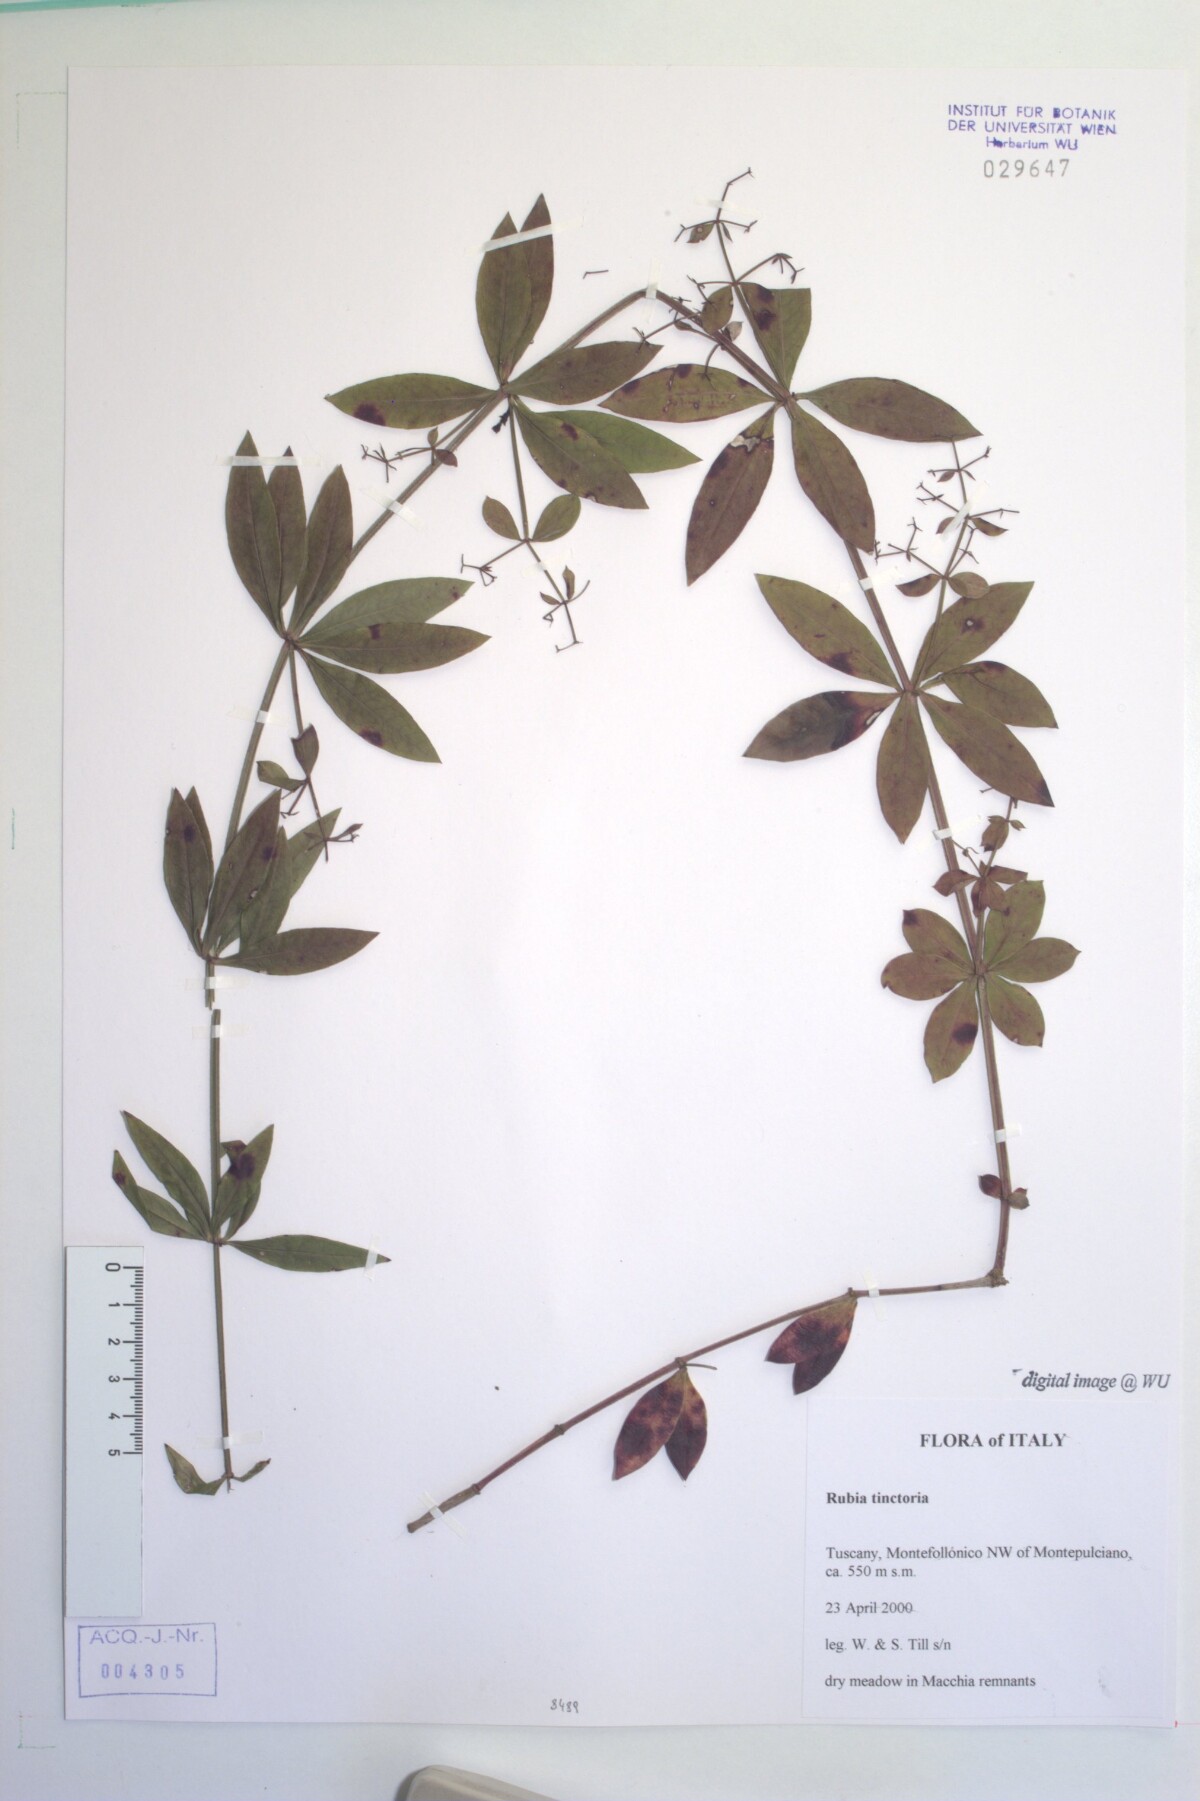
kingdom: Plantae
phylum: Tracheophyta
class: Magnoliopsida
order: Gentianales
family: Rubiaceae
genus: Rubia
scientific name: Rubia tinctorum
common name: Dyer's madder
